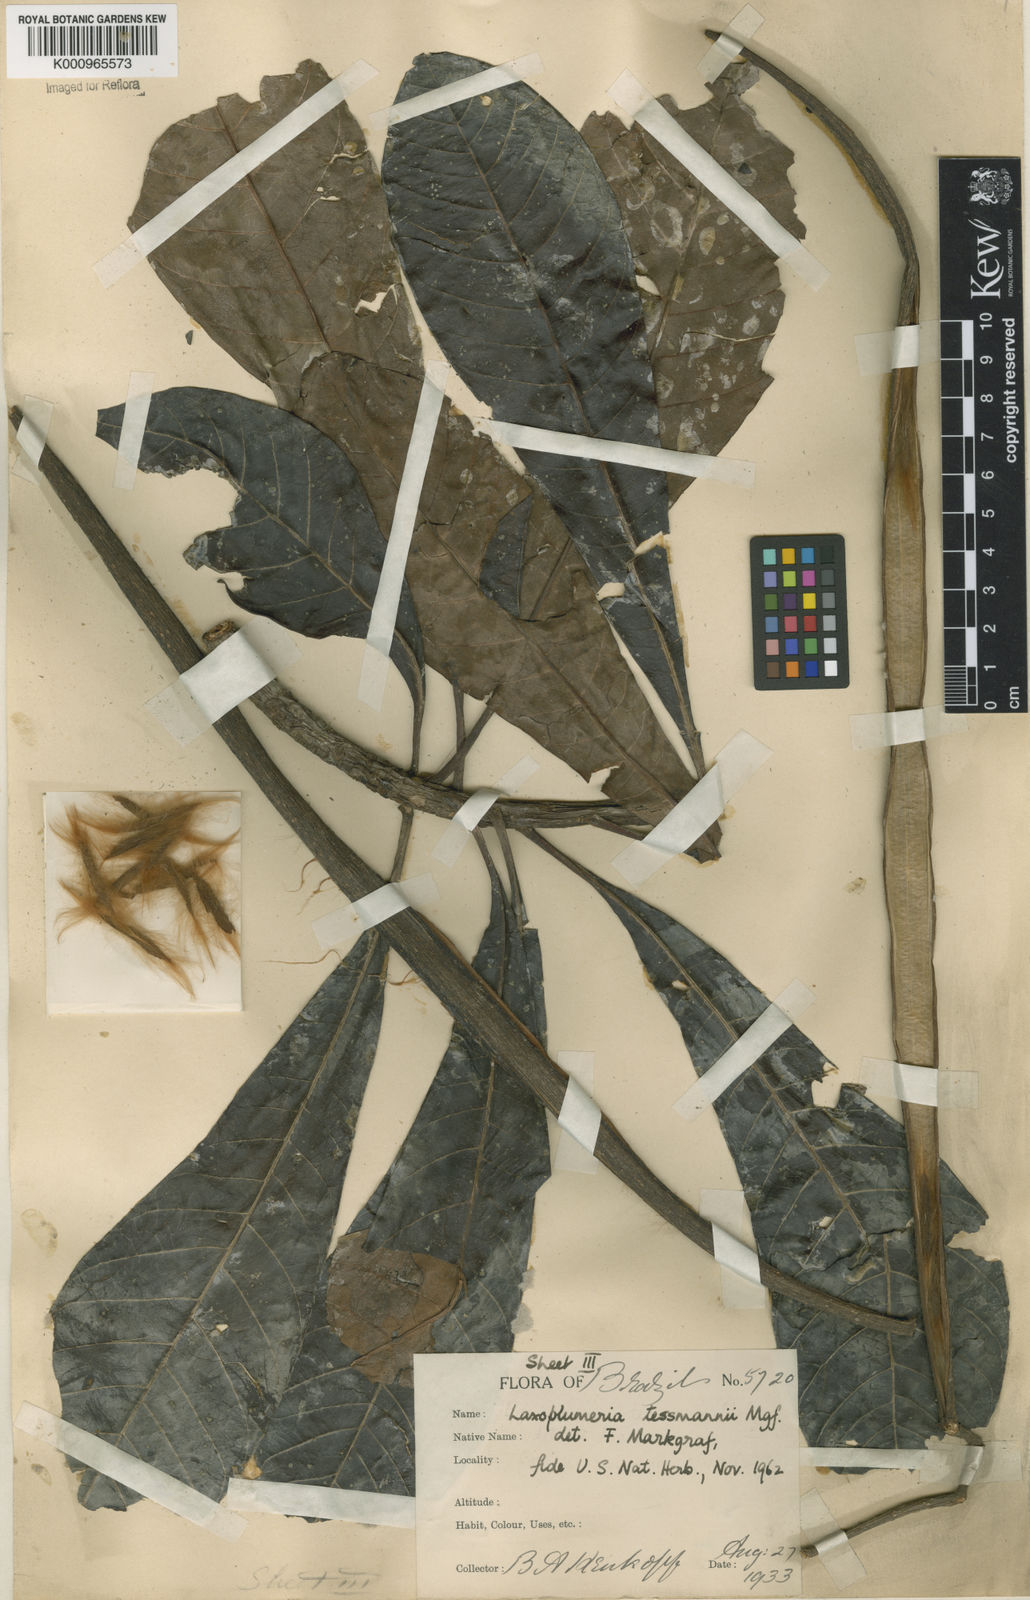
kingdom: Plantae
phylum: Tracheophyta
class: Magnoliopsida
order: Gentianales
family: Apocynaceae
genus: Laxoplumeria
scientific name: Laxoplumeria tessmannii
